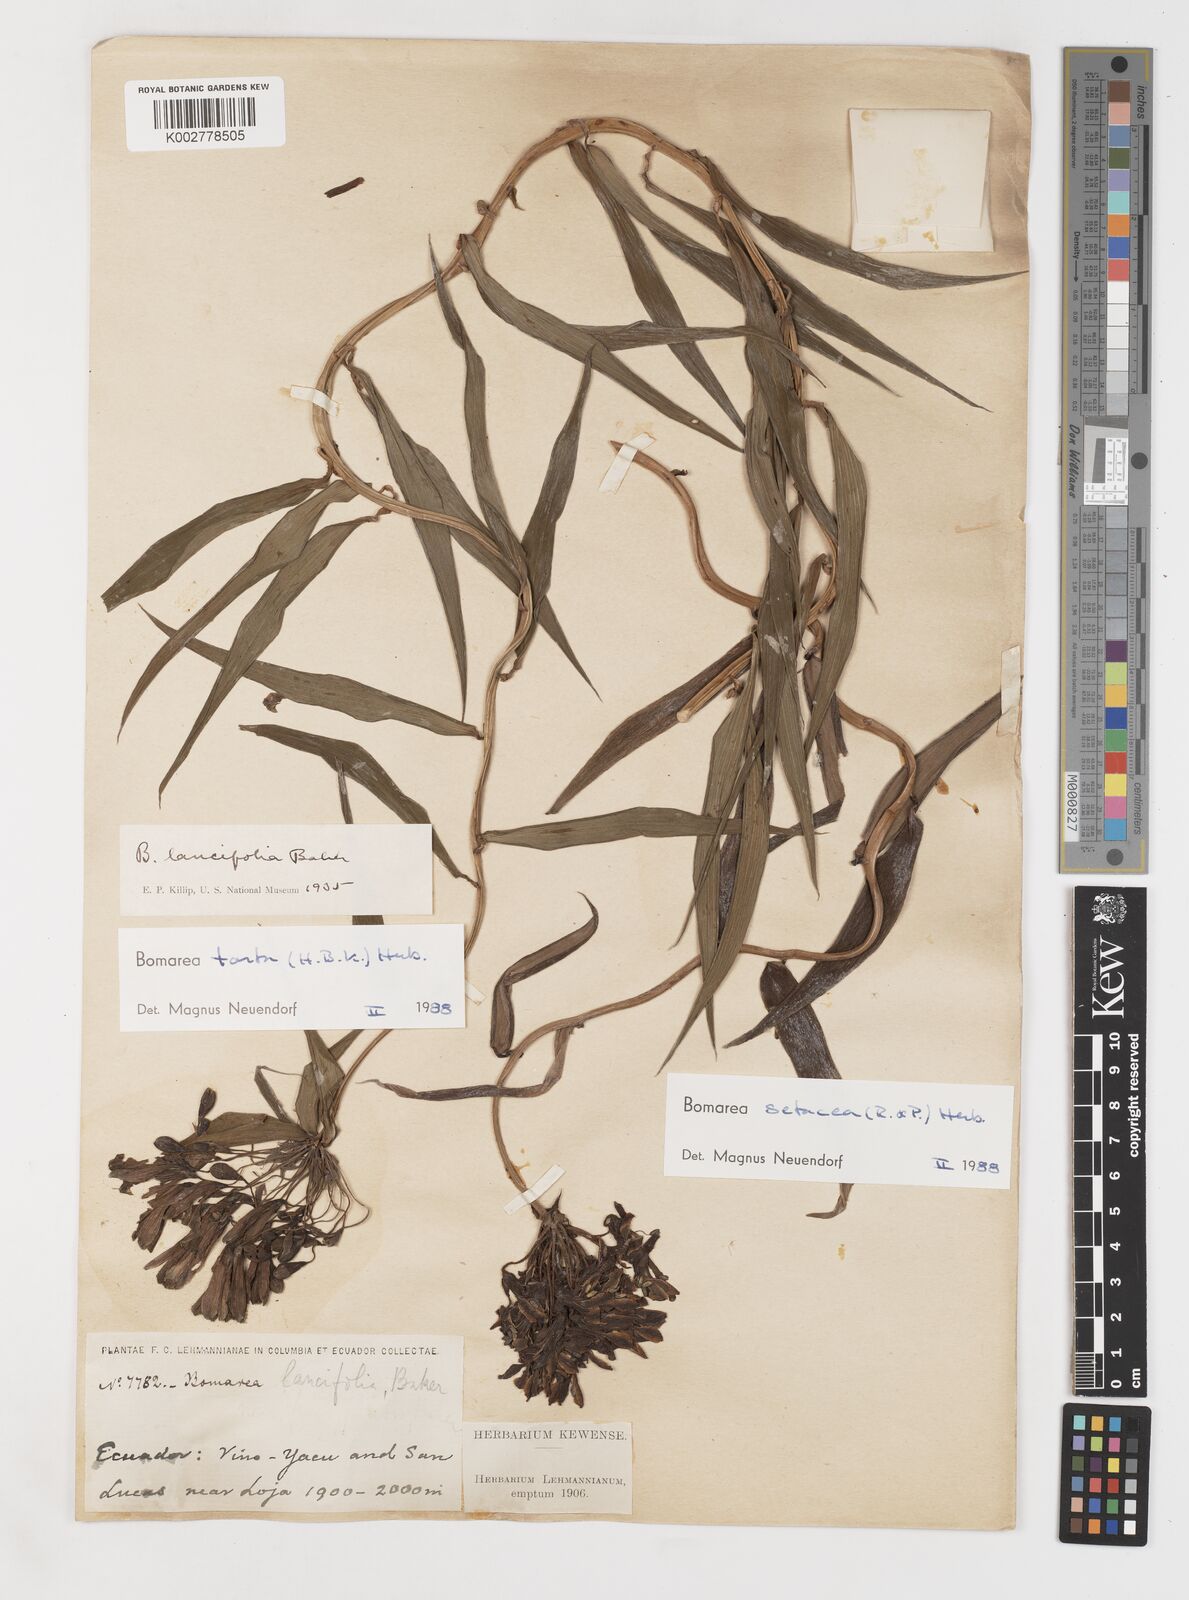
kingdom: Plantae
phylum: Tracheophyta
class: Liliopsida
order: Liliales
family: Alstroemeriaceae
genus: Bomarea
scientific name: Bomarea setacea
